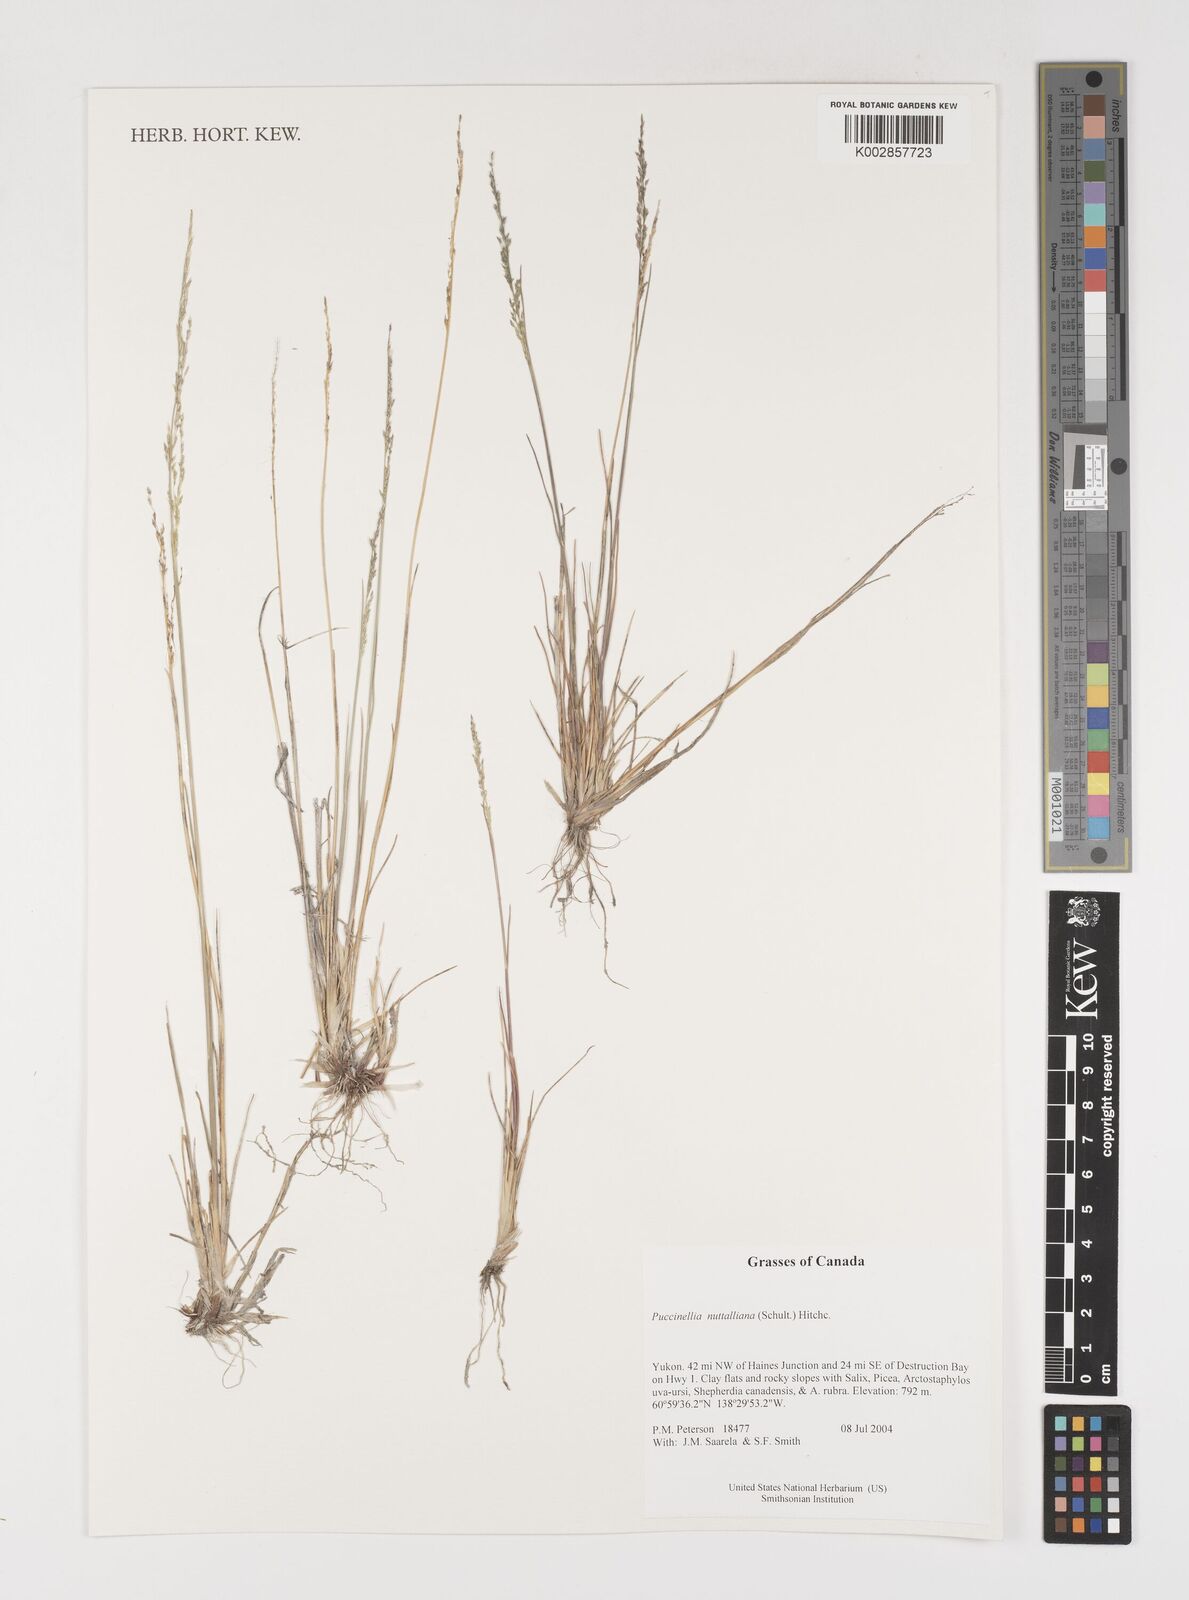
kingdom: Plantae
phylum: Tracheophyta
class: Liliopsida
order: Poales
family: Poaceae
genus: Puccinellia
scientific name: Puccinellia nuttalliana
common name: Nuttall's alkali grass
